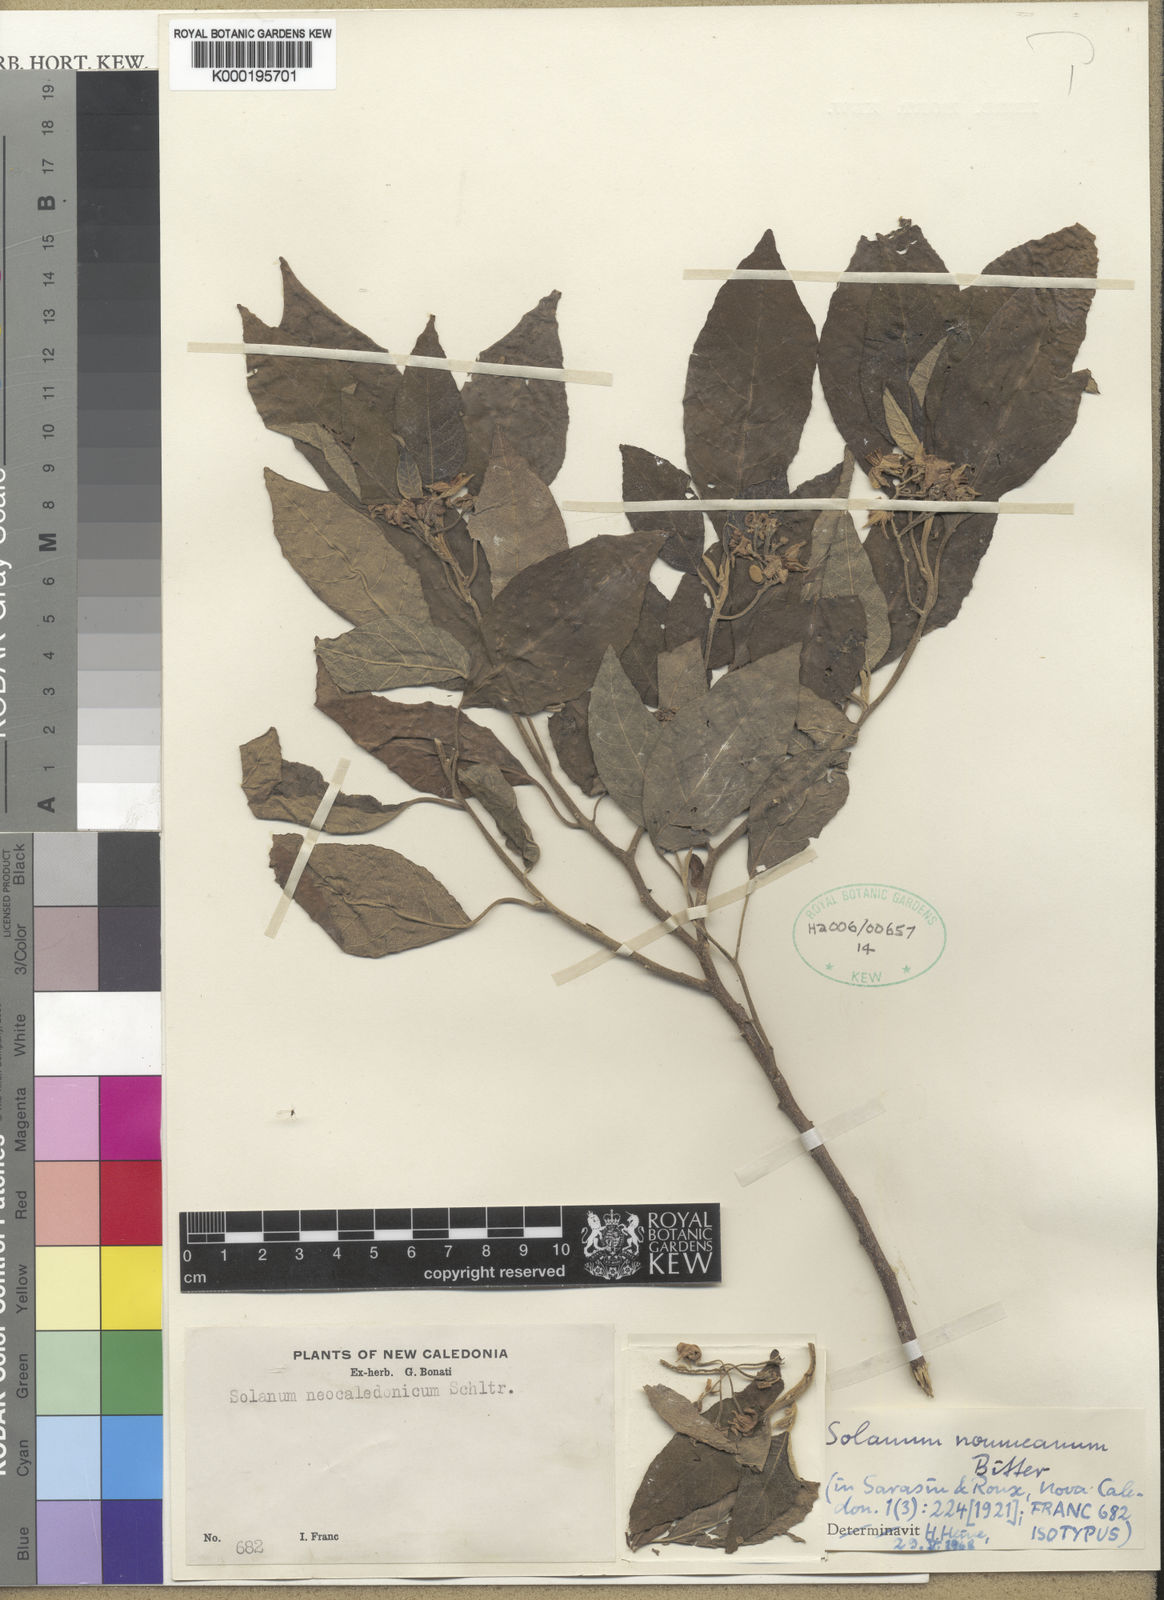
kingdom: Plantae
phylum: Tracheophyta
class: Magnoliopsida
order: Solanales
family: Solanaceae
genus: Solanum
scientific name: Solanum austrocaledonicum
